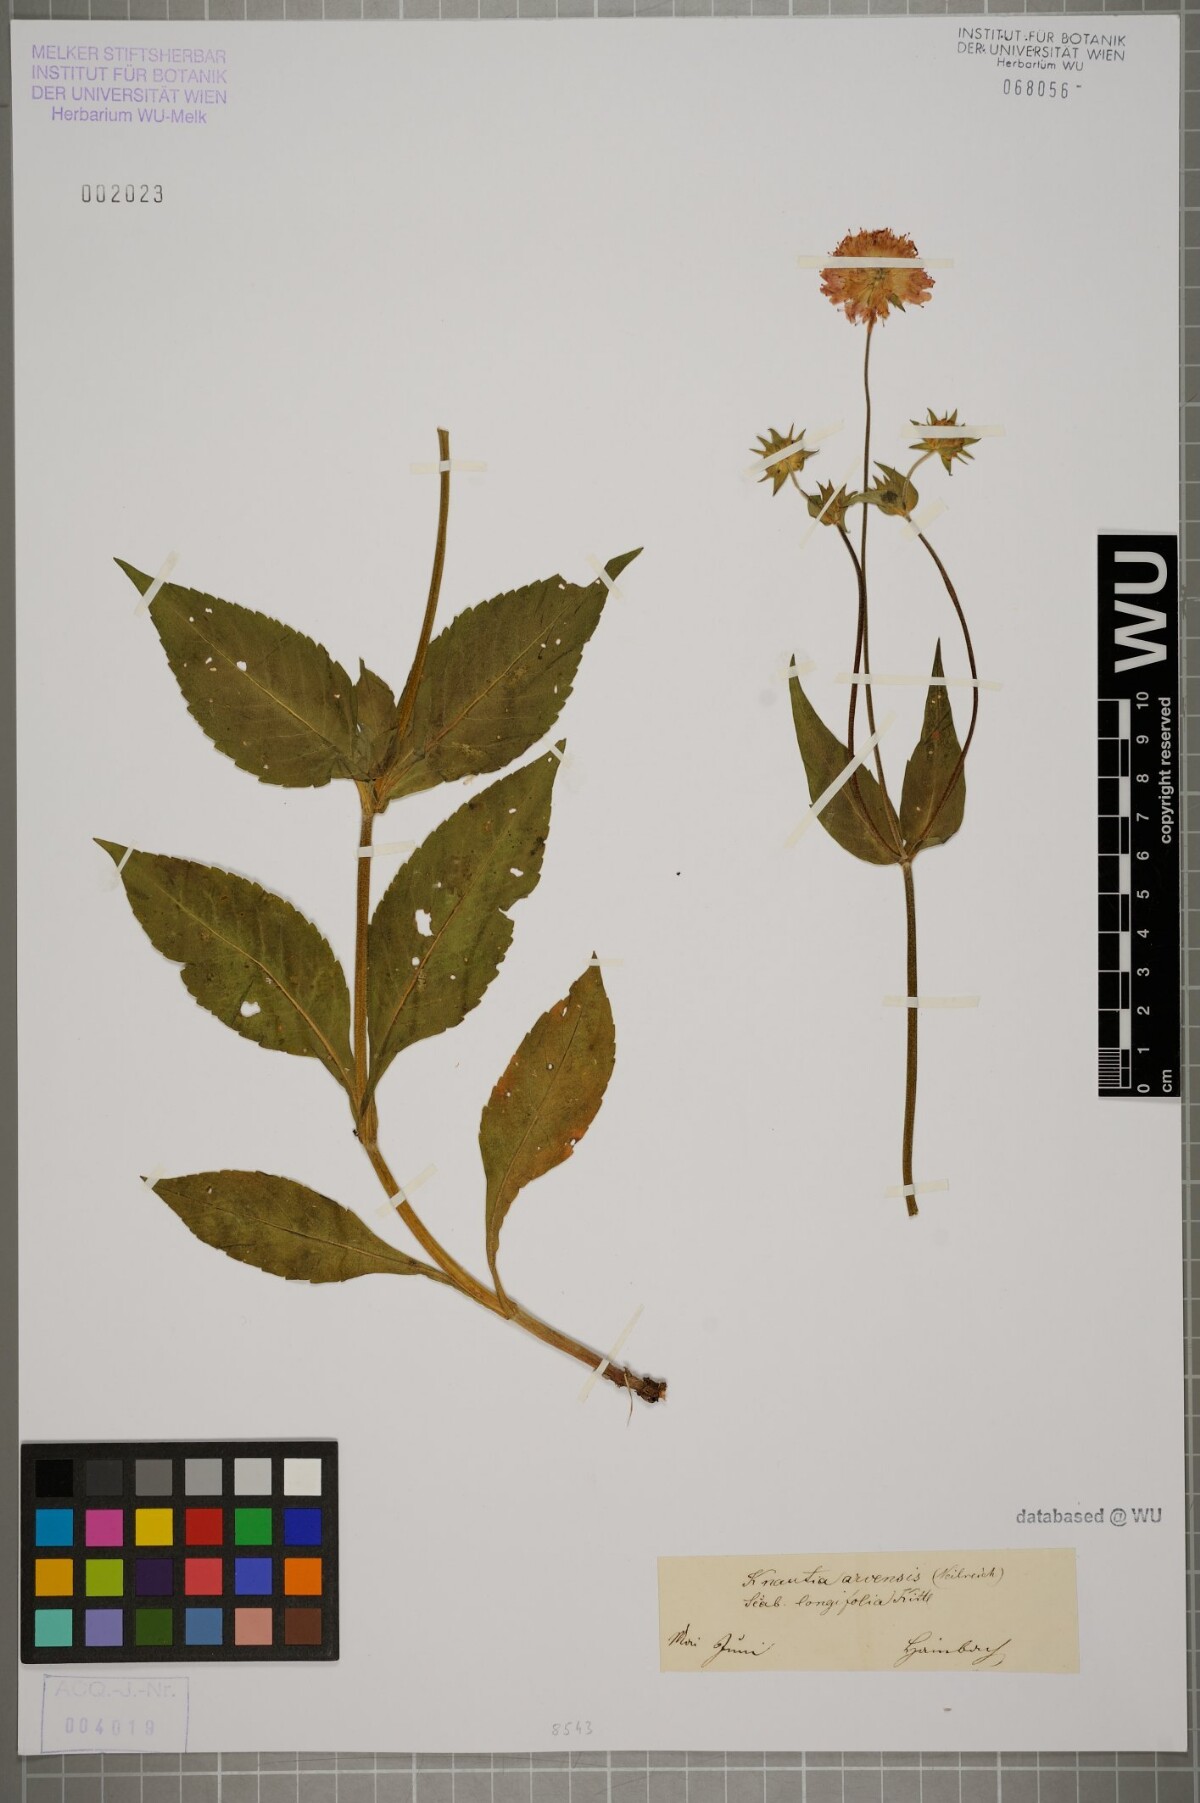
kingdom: Plantae
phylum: Tracheophyta
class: Magnoliopsida
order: Dipsacales
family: Caprifoliaceae
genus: Knautia
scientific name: Knautia drymeia
